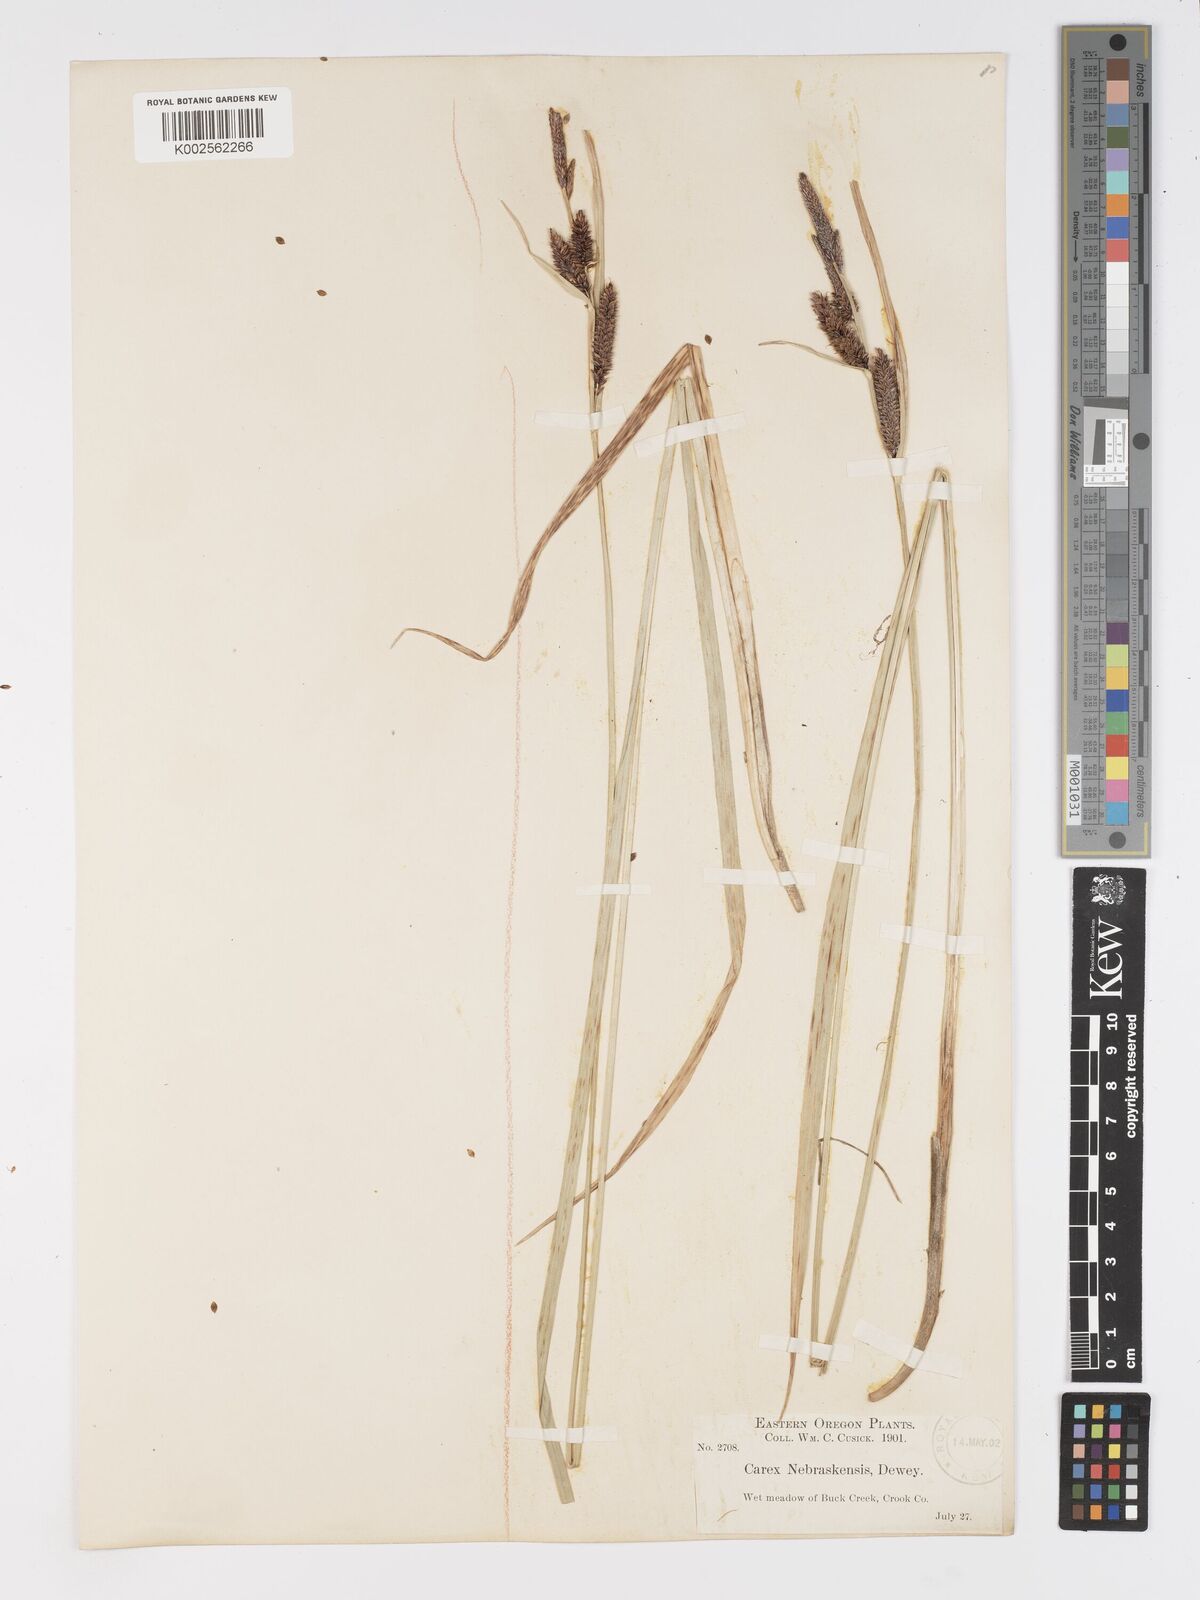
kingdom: Plantae
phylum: Tracheophyta
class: Liliopsida
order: Poales
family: Cyperaceae
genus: Carex
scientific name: Carex nebrascensis
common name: Nebraska sedge
